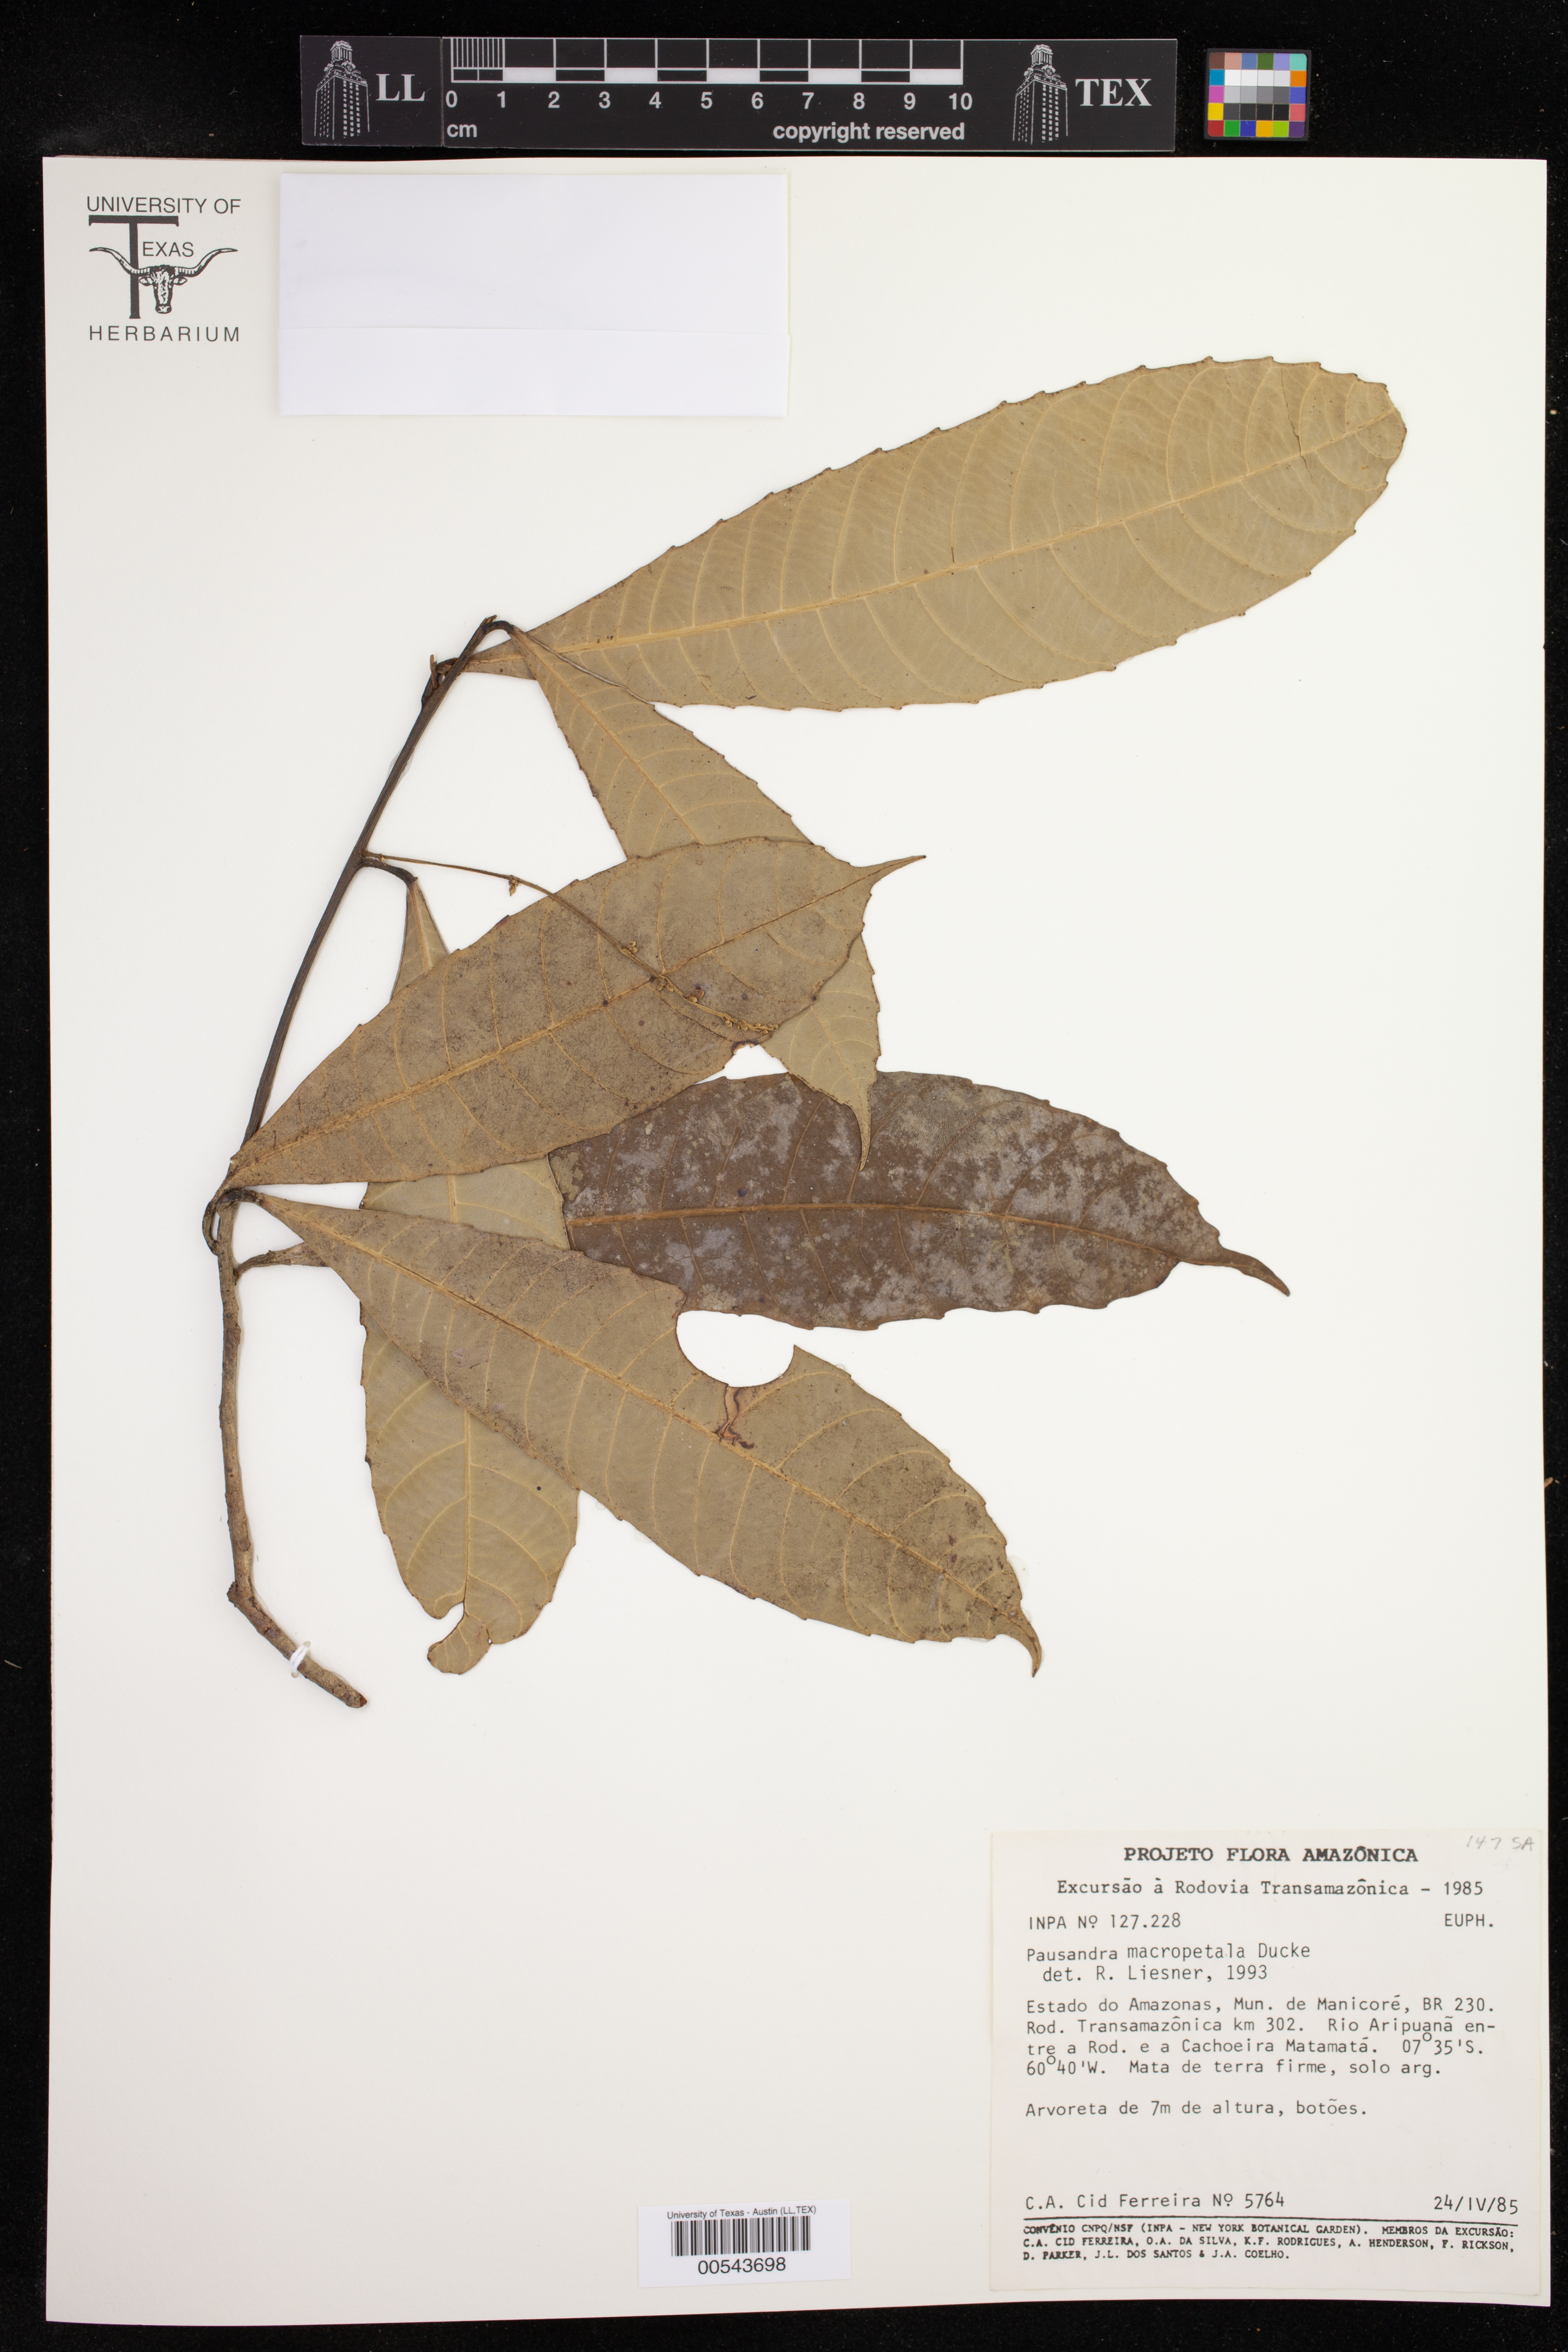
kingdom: Plantae
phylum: Tracheophyta
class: Magnoliopsida
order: Malpighiales
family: Euphorbiaceae
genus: Pausandra
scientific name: Pausandra macropetala
